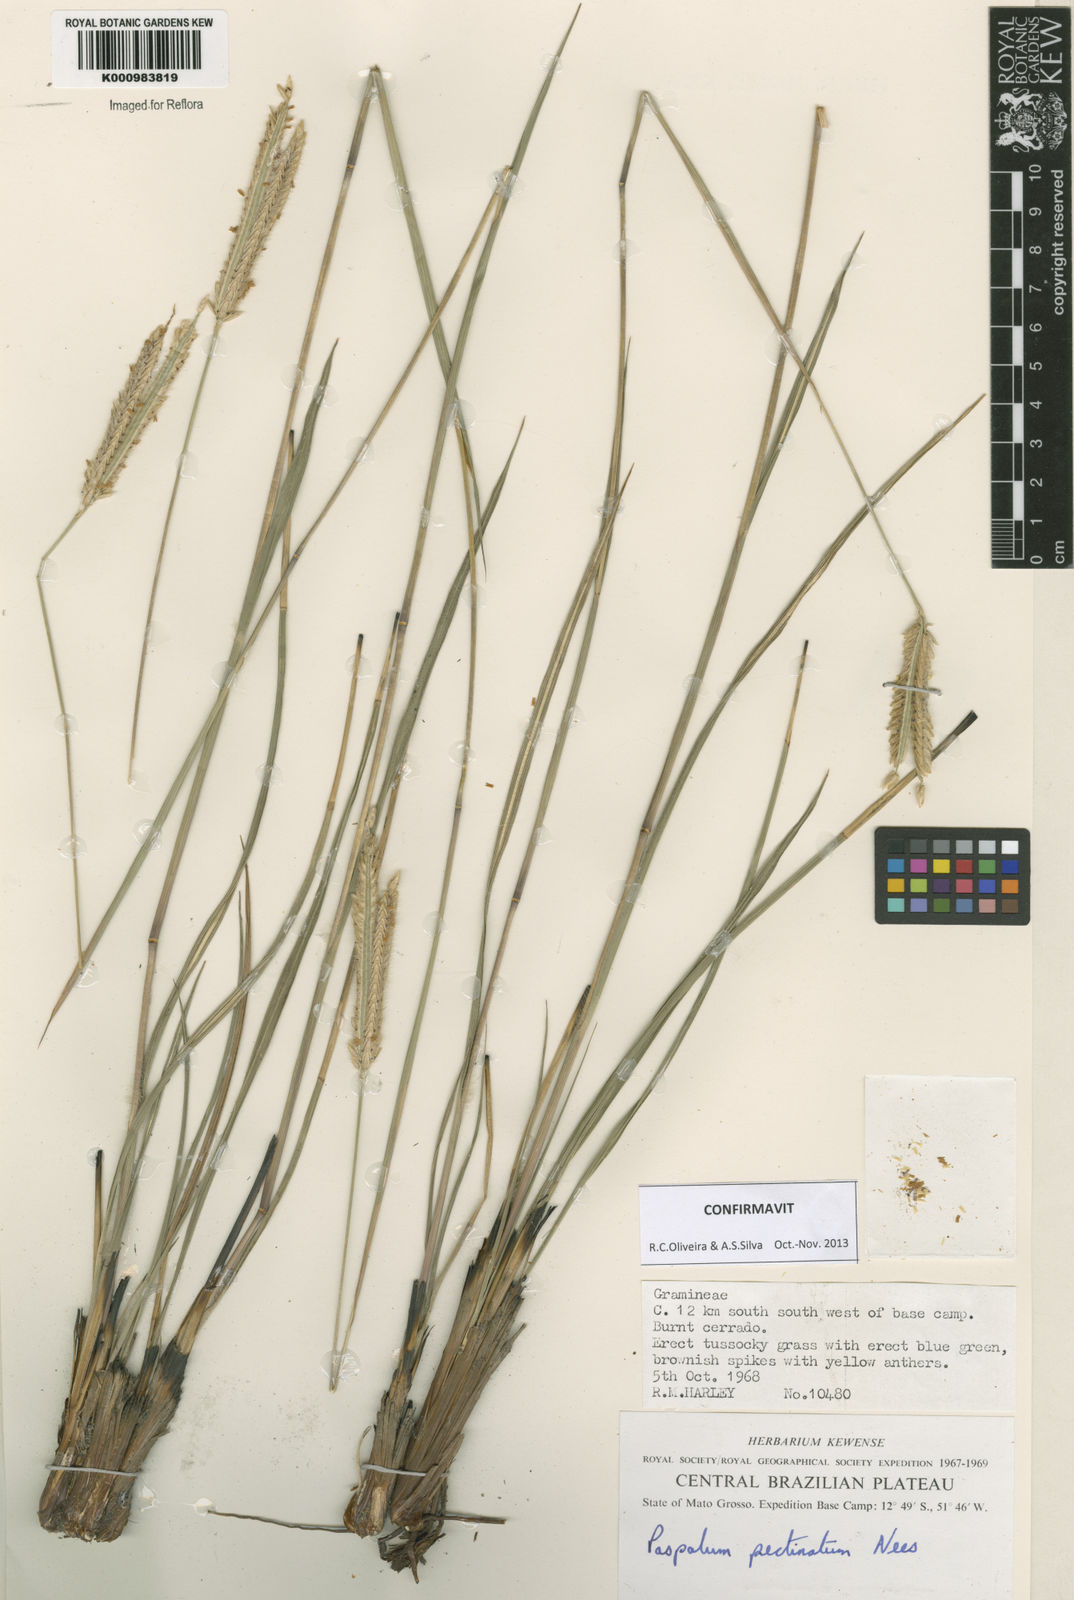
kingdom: Plantae
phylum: Tracheophyta
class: Liliopsida
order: Poales
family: Poaceae
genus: Paspalum
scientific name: Paspalum
